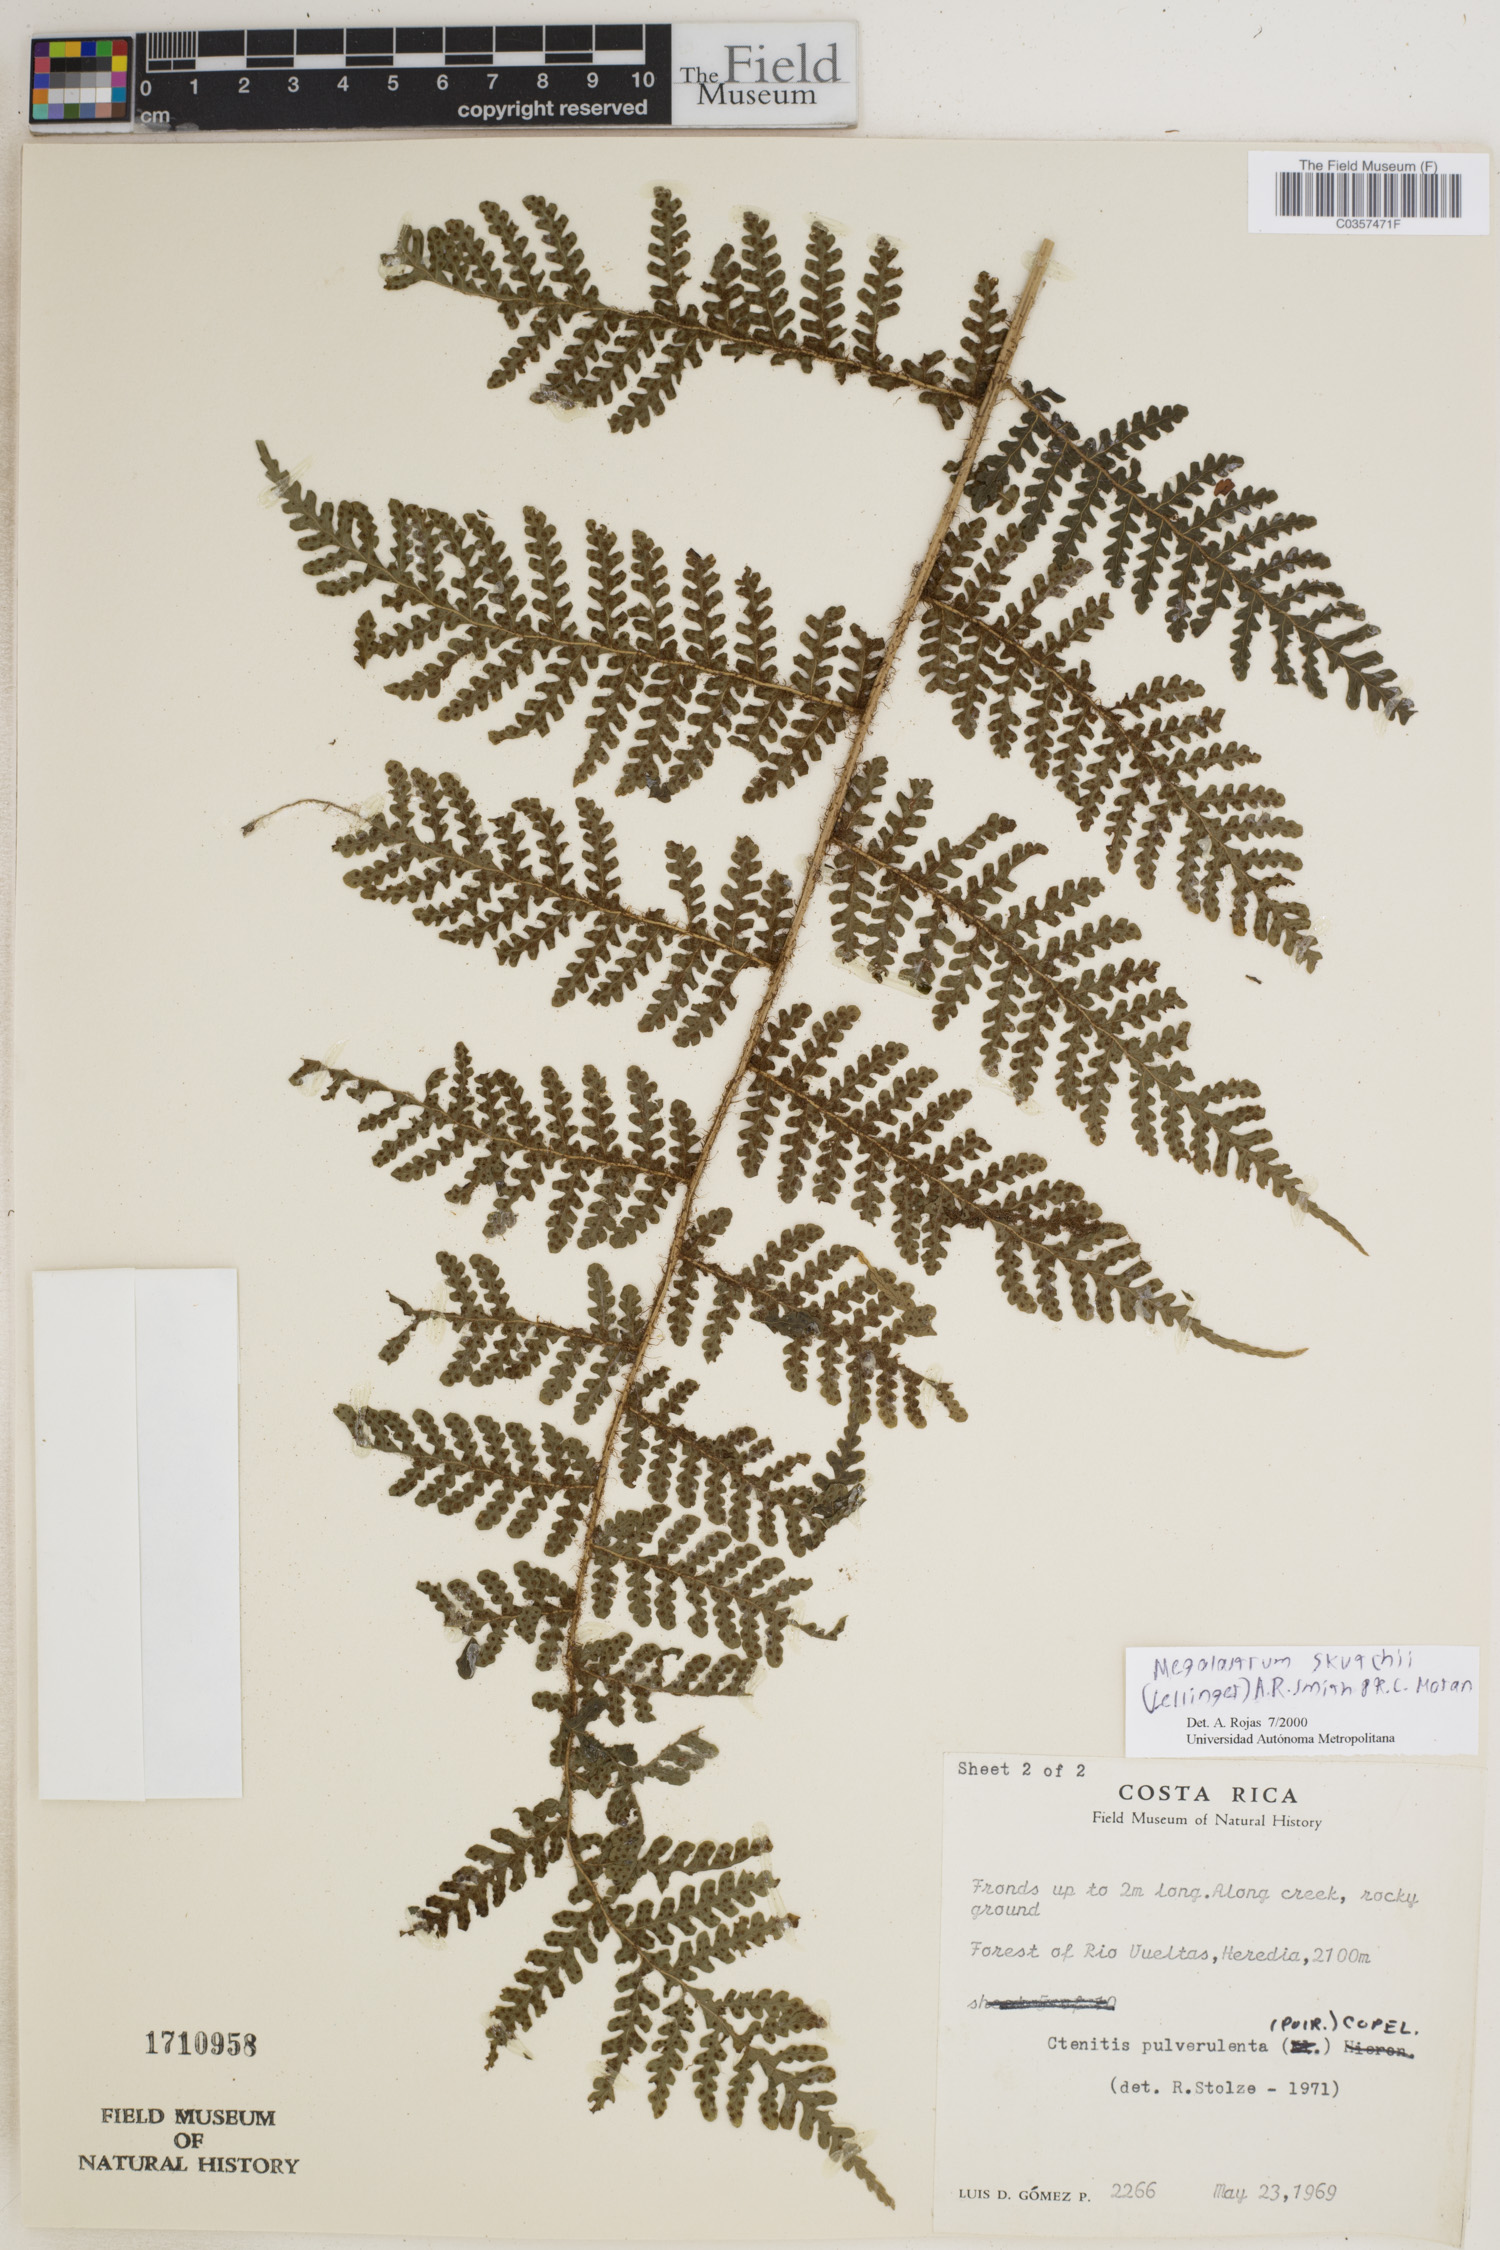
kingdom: Plantae
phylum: Tracheophyta
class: Polypodiopsida
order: Polypodiales
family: Dryopteridaceae
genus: Megalastrum
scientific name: Megalastrum skutchii
